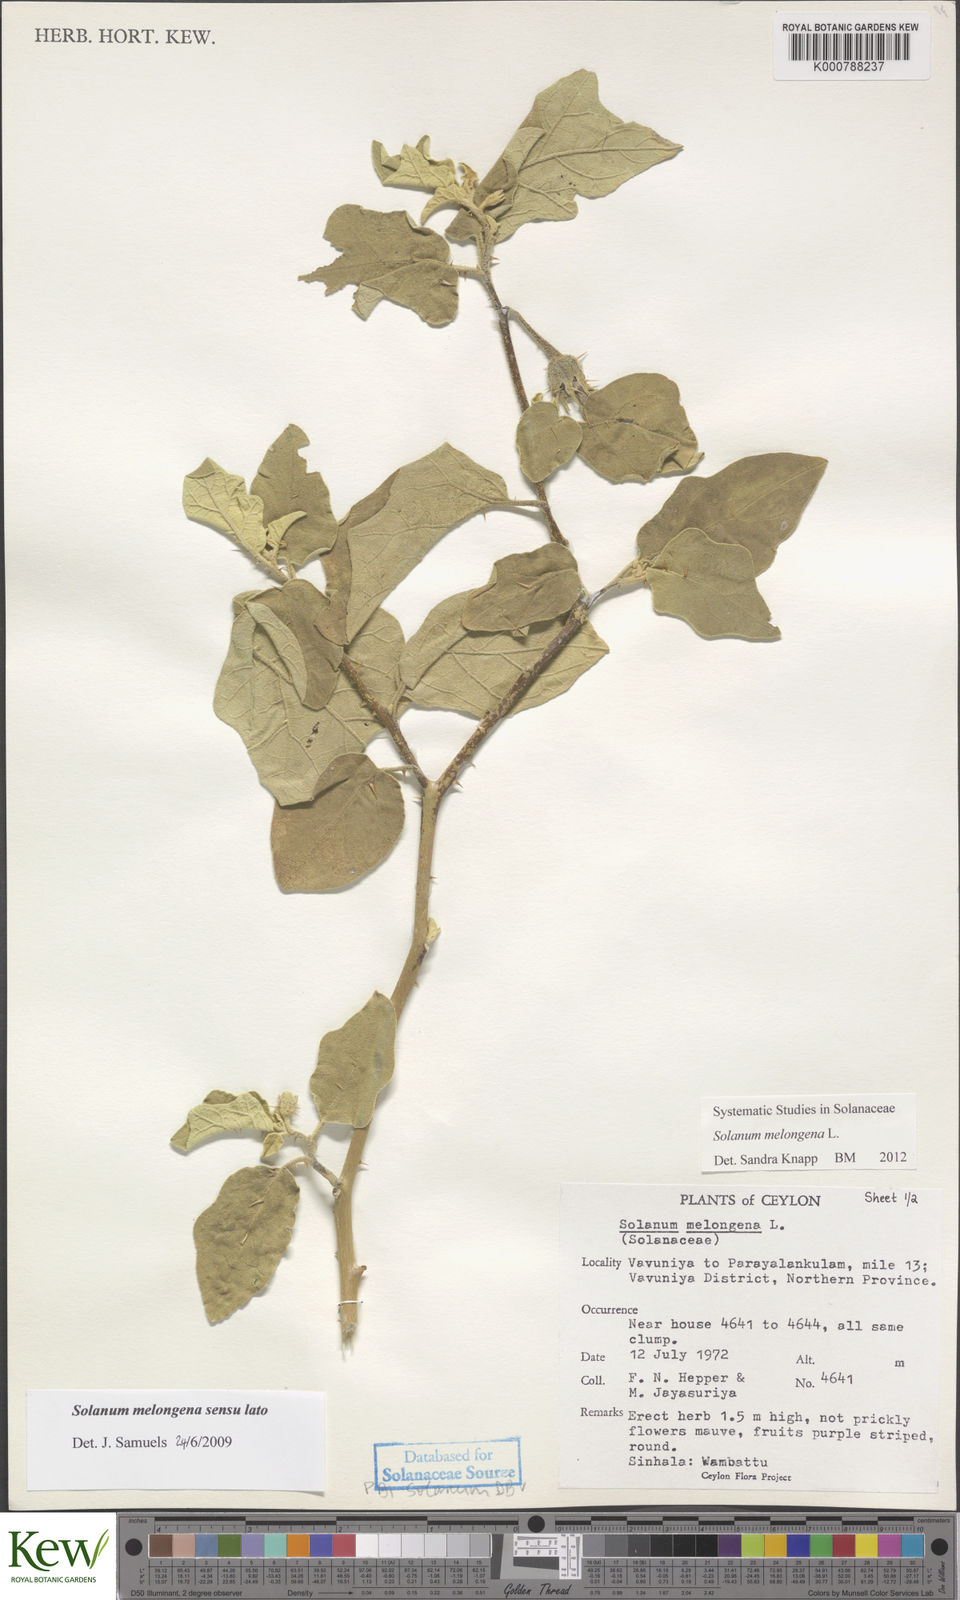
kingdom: Plantae
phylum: Tracheophyta
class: Magnoliopsida
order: Solanales
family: Solanaceae
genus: Solanum
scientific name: Solanum melongena
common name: Eggplant
